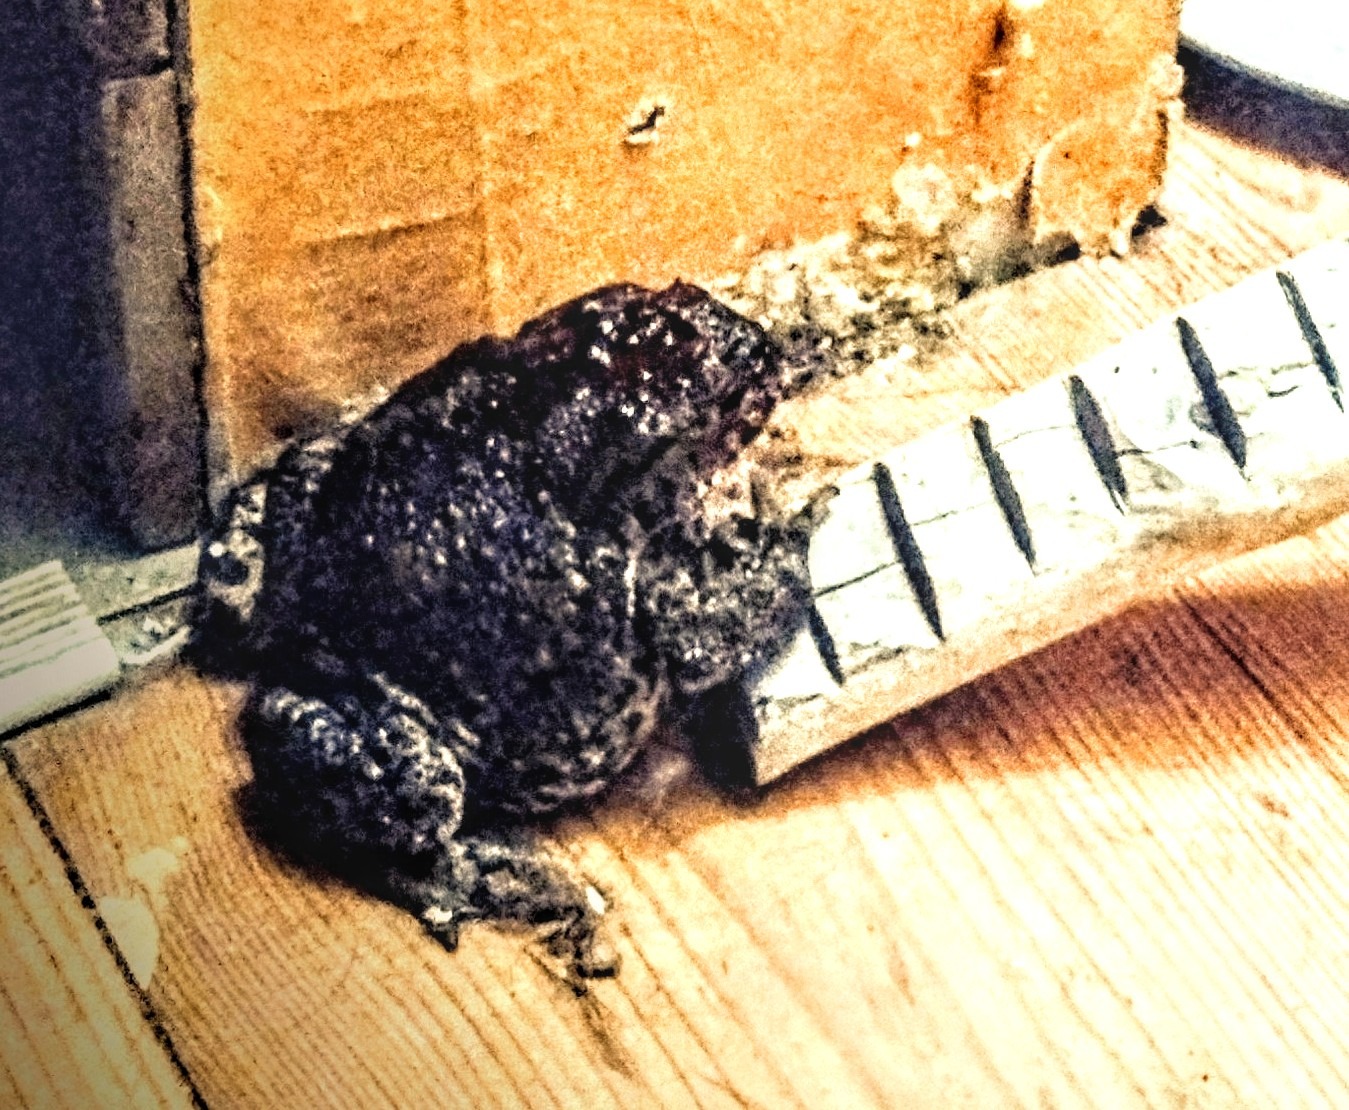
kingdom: Animalia
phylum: Chordata
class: Amphibia
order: Anura
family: Bufonidae
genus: Bufo
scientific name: Bufo bufo
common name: Skrubtudse
